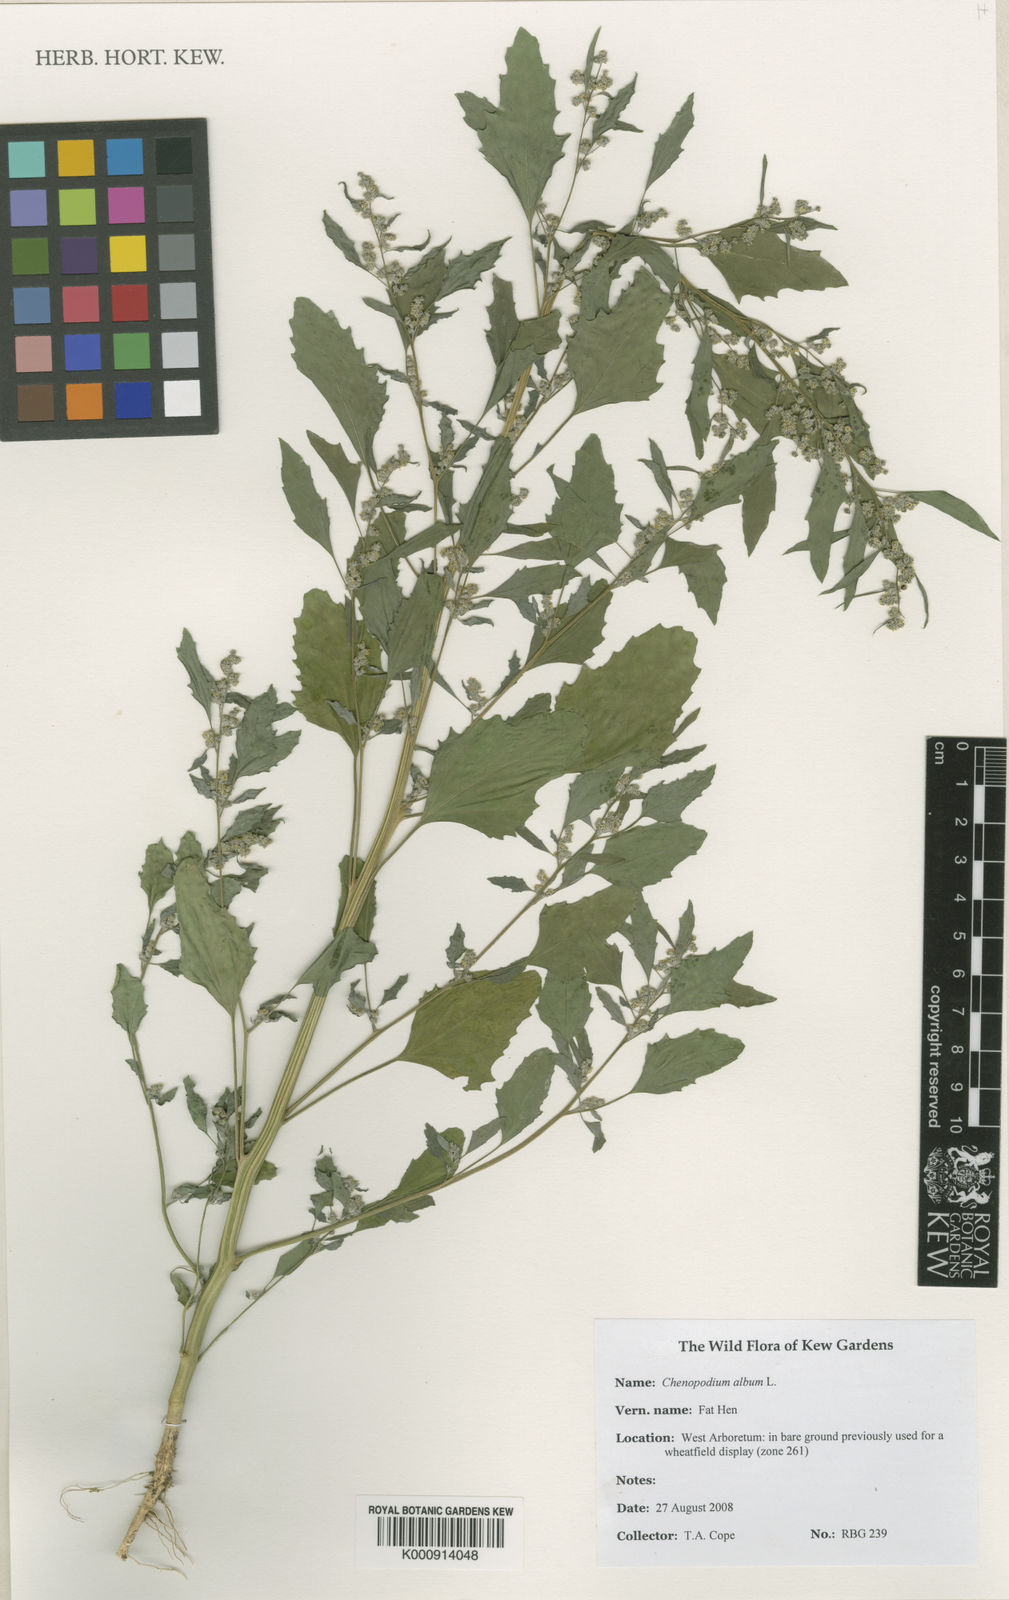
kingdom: Plantae
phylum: Tracheophyta
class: Magnoliopsida
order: Caryophyllales
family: Amaranthaceae
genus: Chenopodium
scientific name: Chenopodium album
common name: Fat-hen
